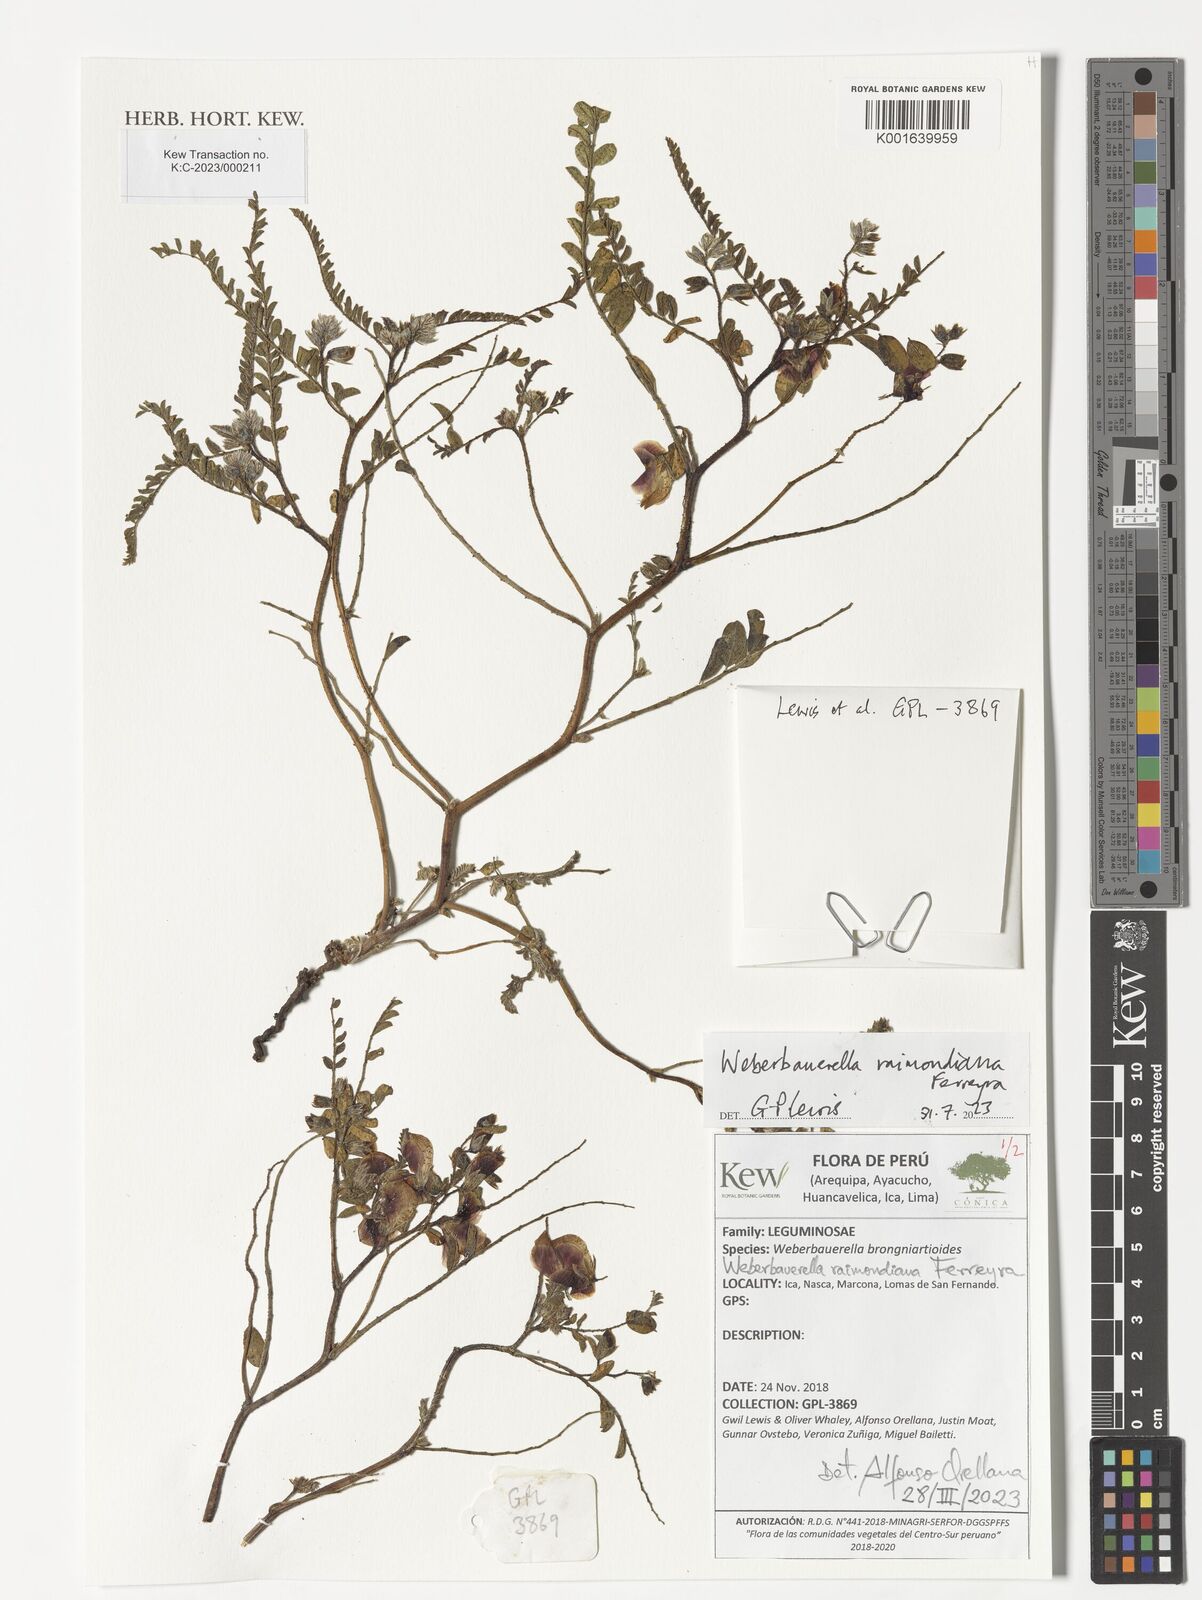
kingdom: Plantae
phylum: Tracheophyta
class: Magnoliopsida
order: Fabales
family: Fabaceae
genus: Weberbauerella
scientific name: Weberbauerella raimondiana
